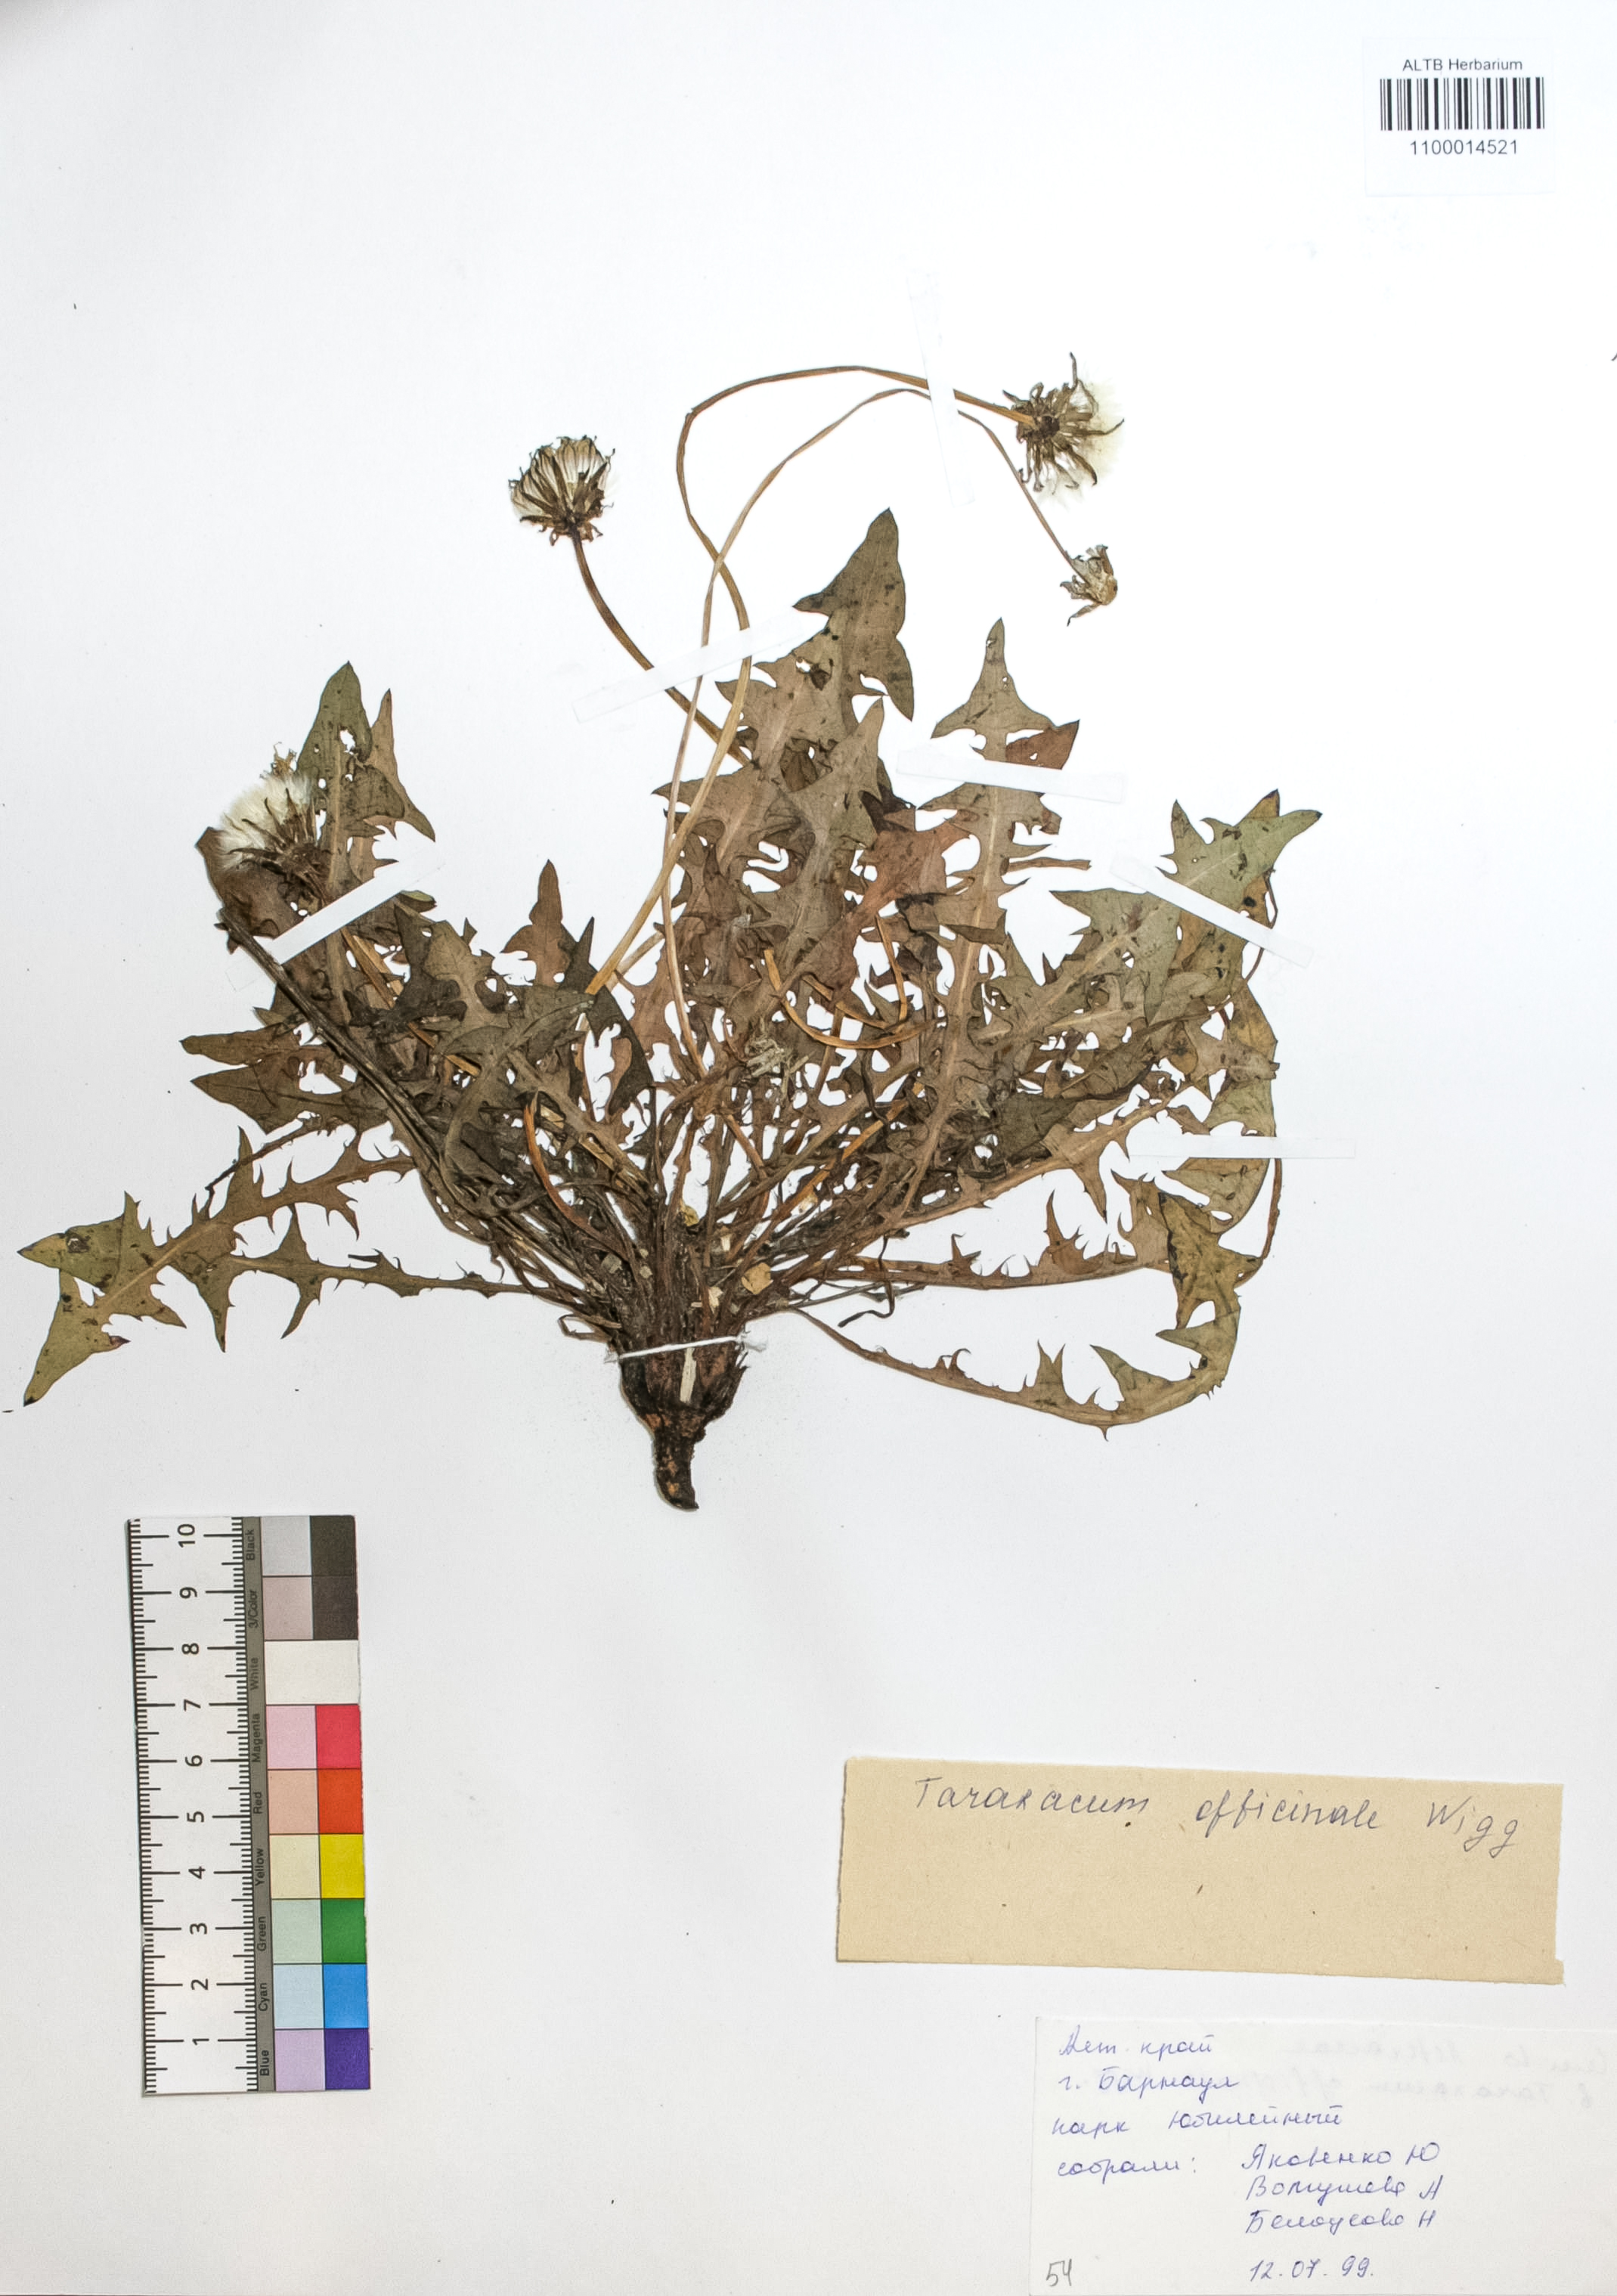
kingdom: Plantae
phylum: Tracheophyta
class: Magnoliopsida
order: Asterales
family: Asteraceae
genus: Taraxacum
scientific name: Taraxacum officinale
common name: Common dandelion
